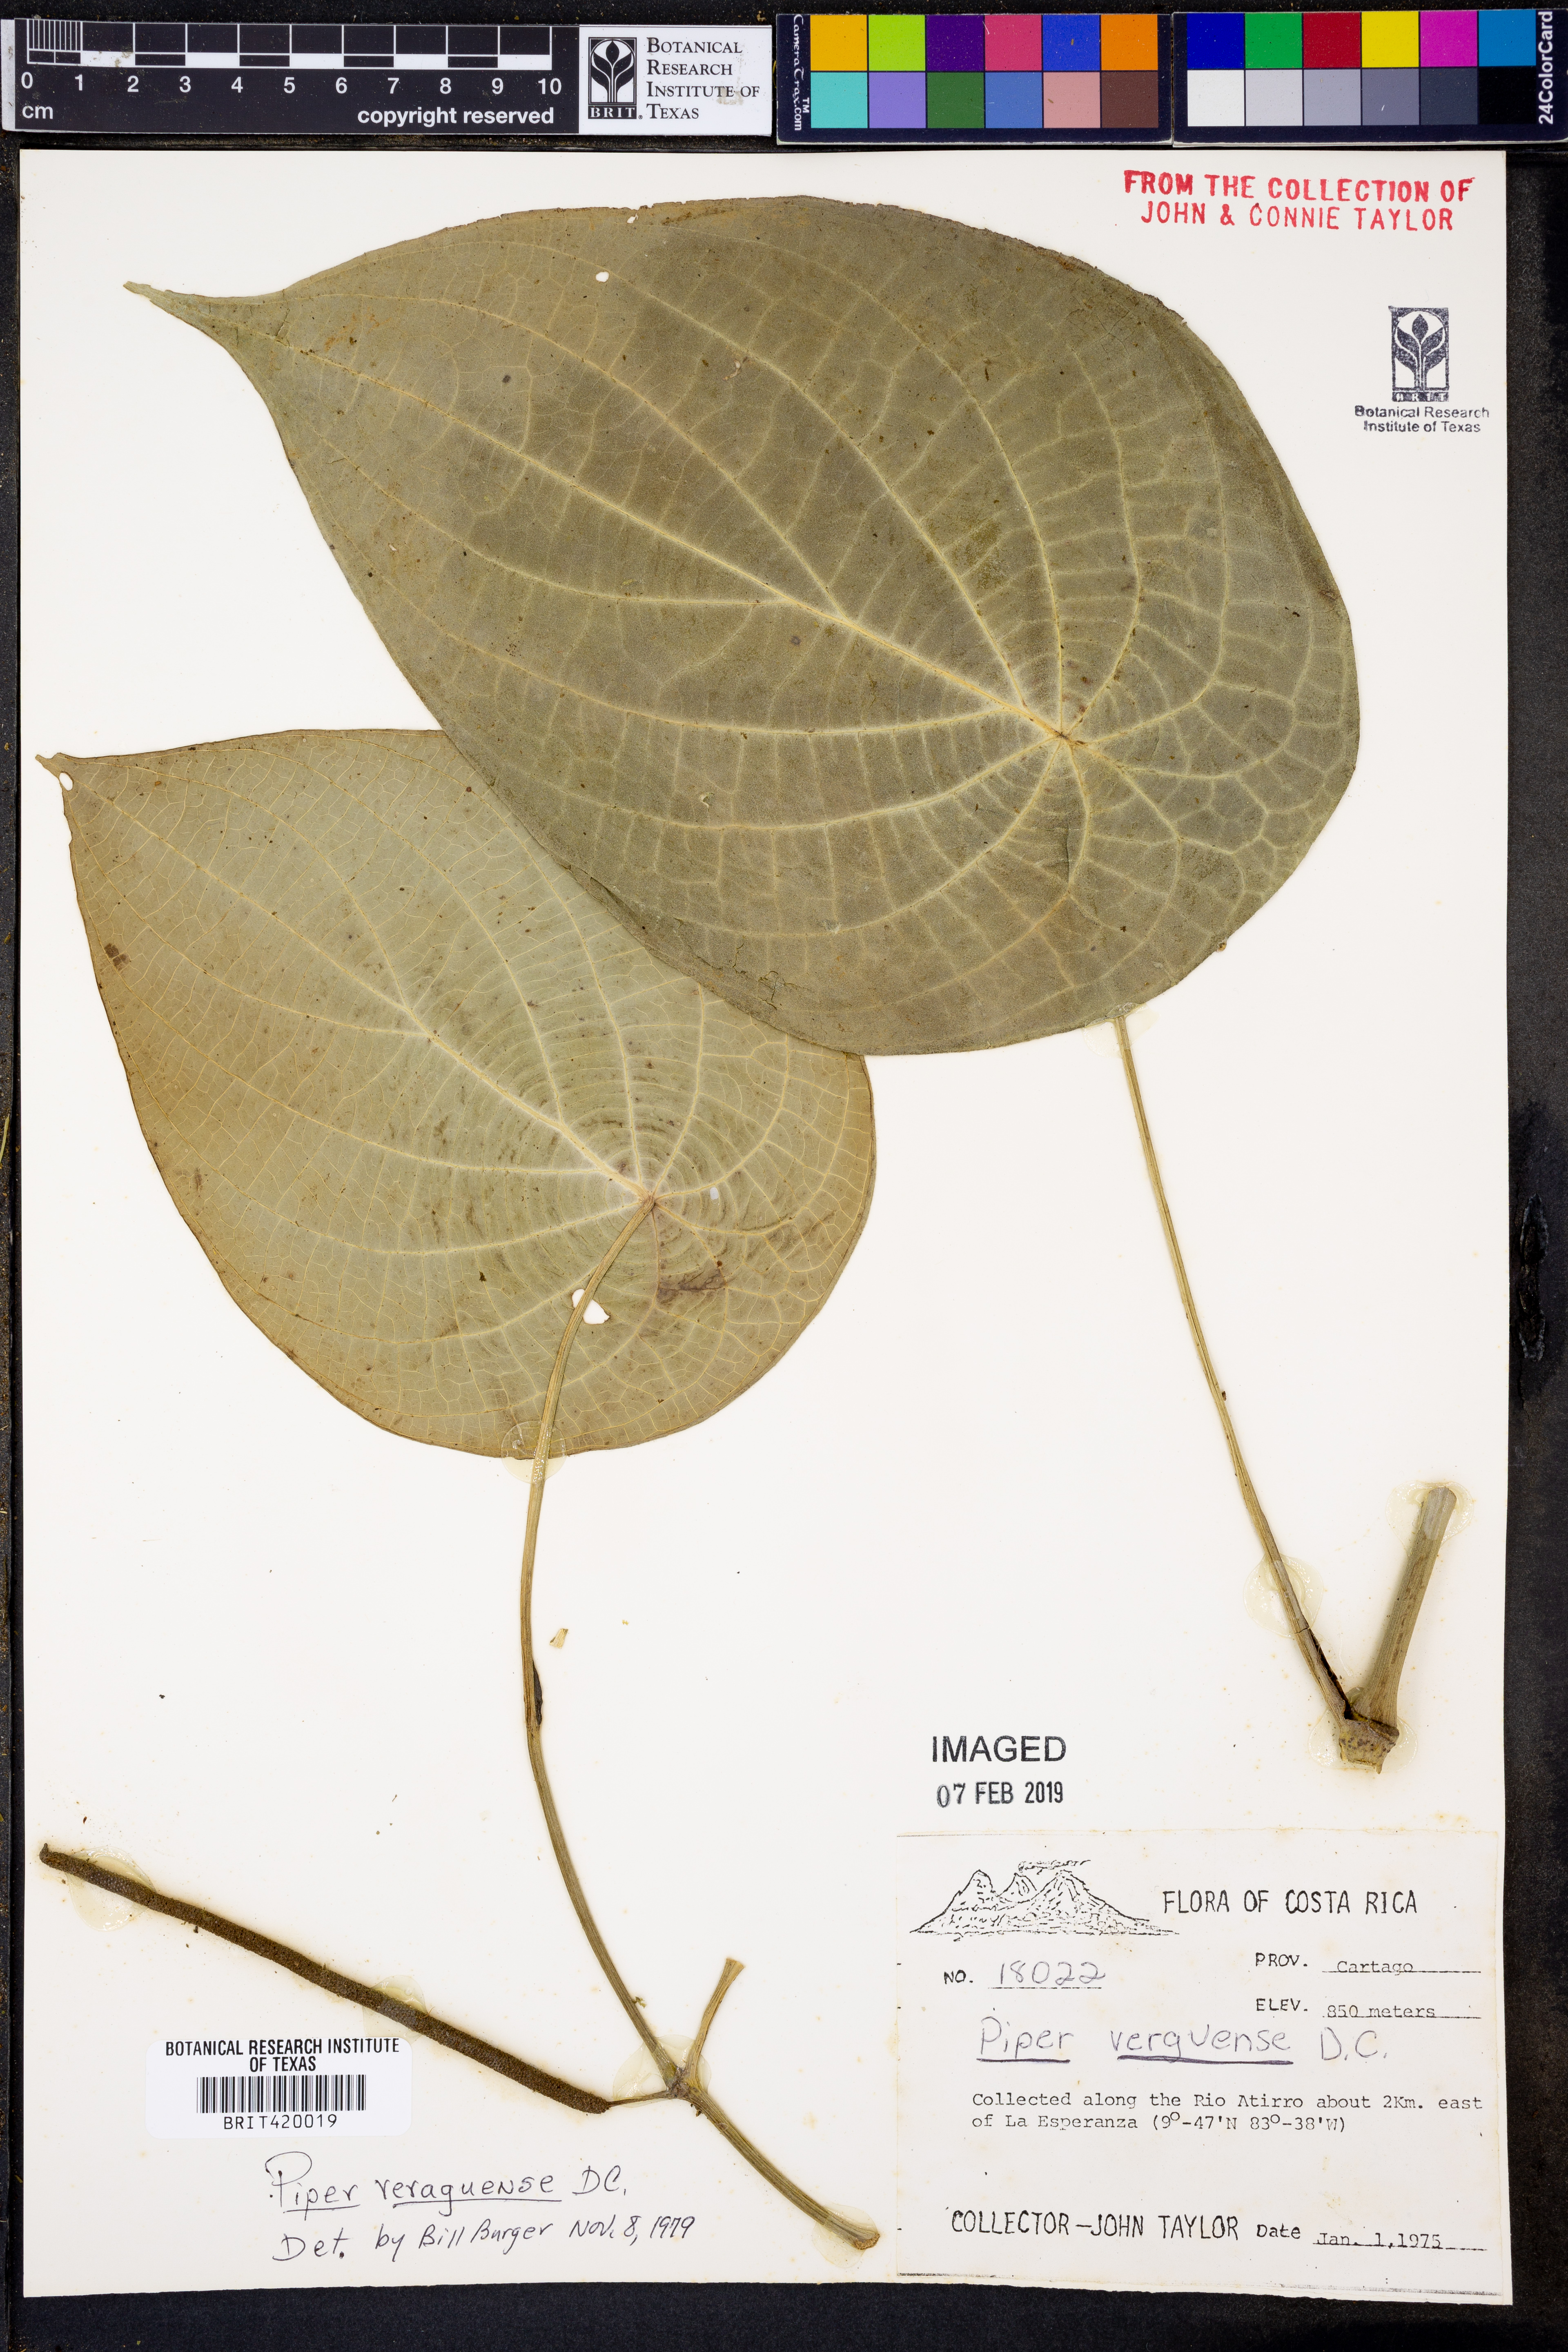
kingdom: Plantae
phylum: Tracheophyta
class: Magnoliopsida
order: Piperales
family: Piperaceae
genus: Piper
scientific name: Piper veraguense
